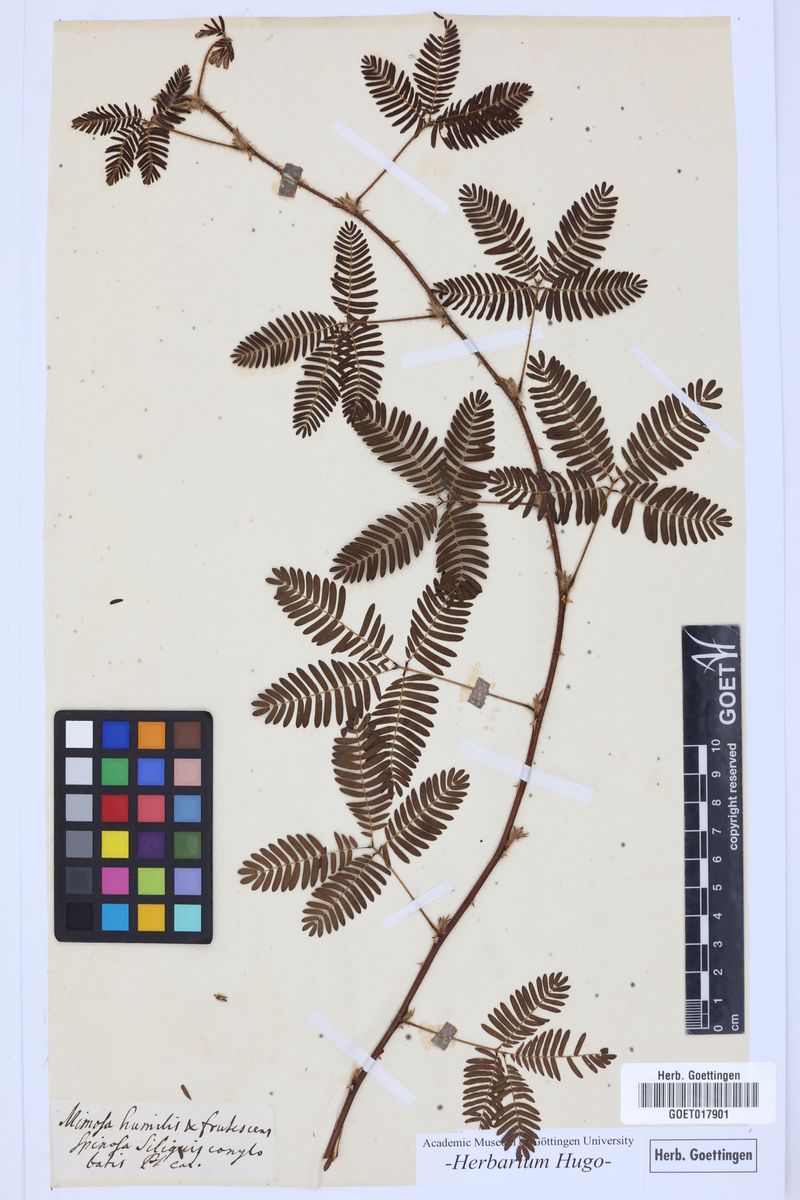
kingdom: Plantae
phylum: Tracheophyta
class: Magnoliopsida
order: Fabales
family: Fabaceae
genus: Mimosa
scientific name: Mimosa
